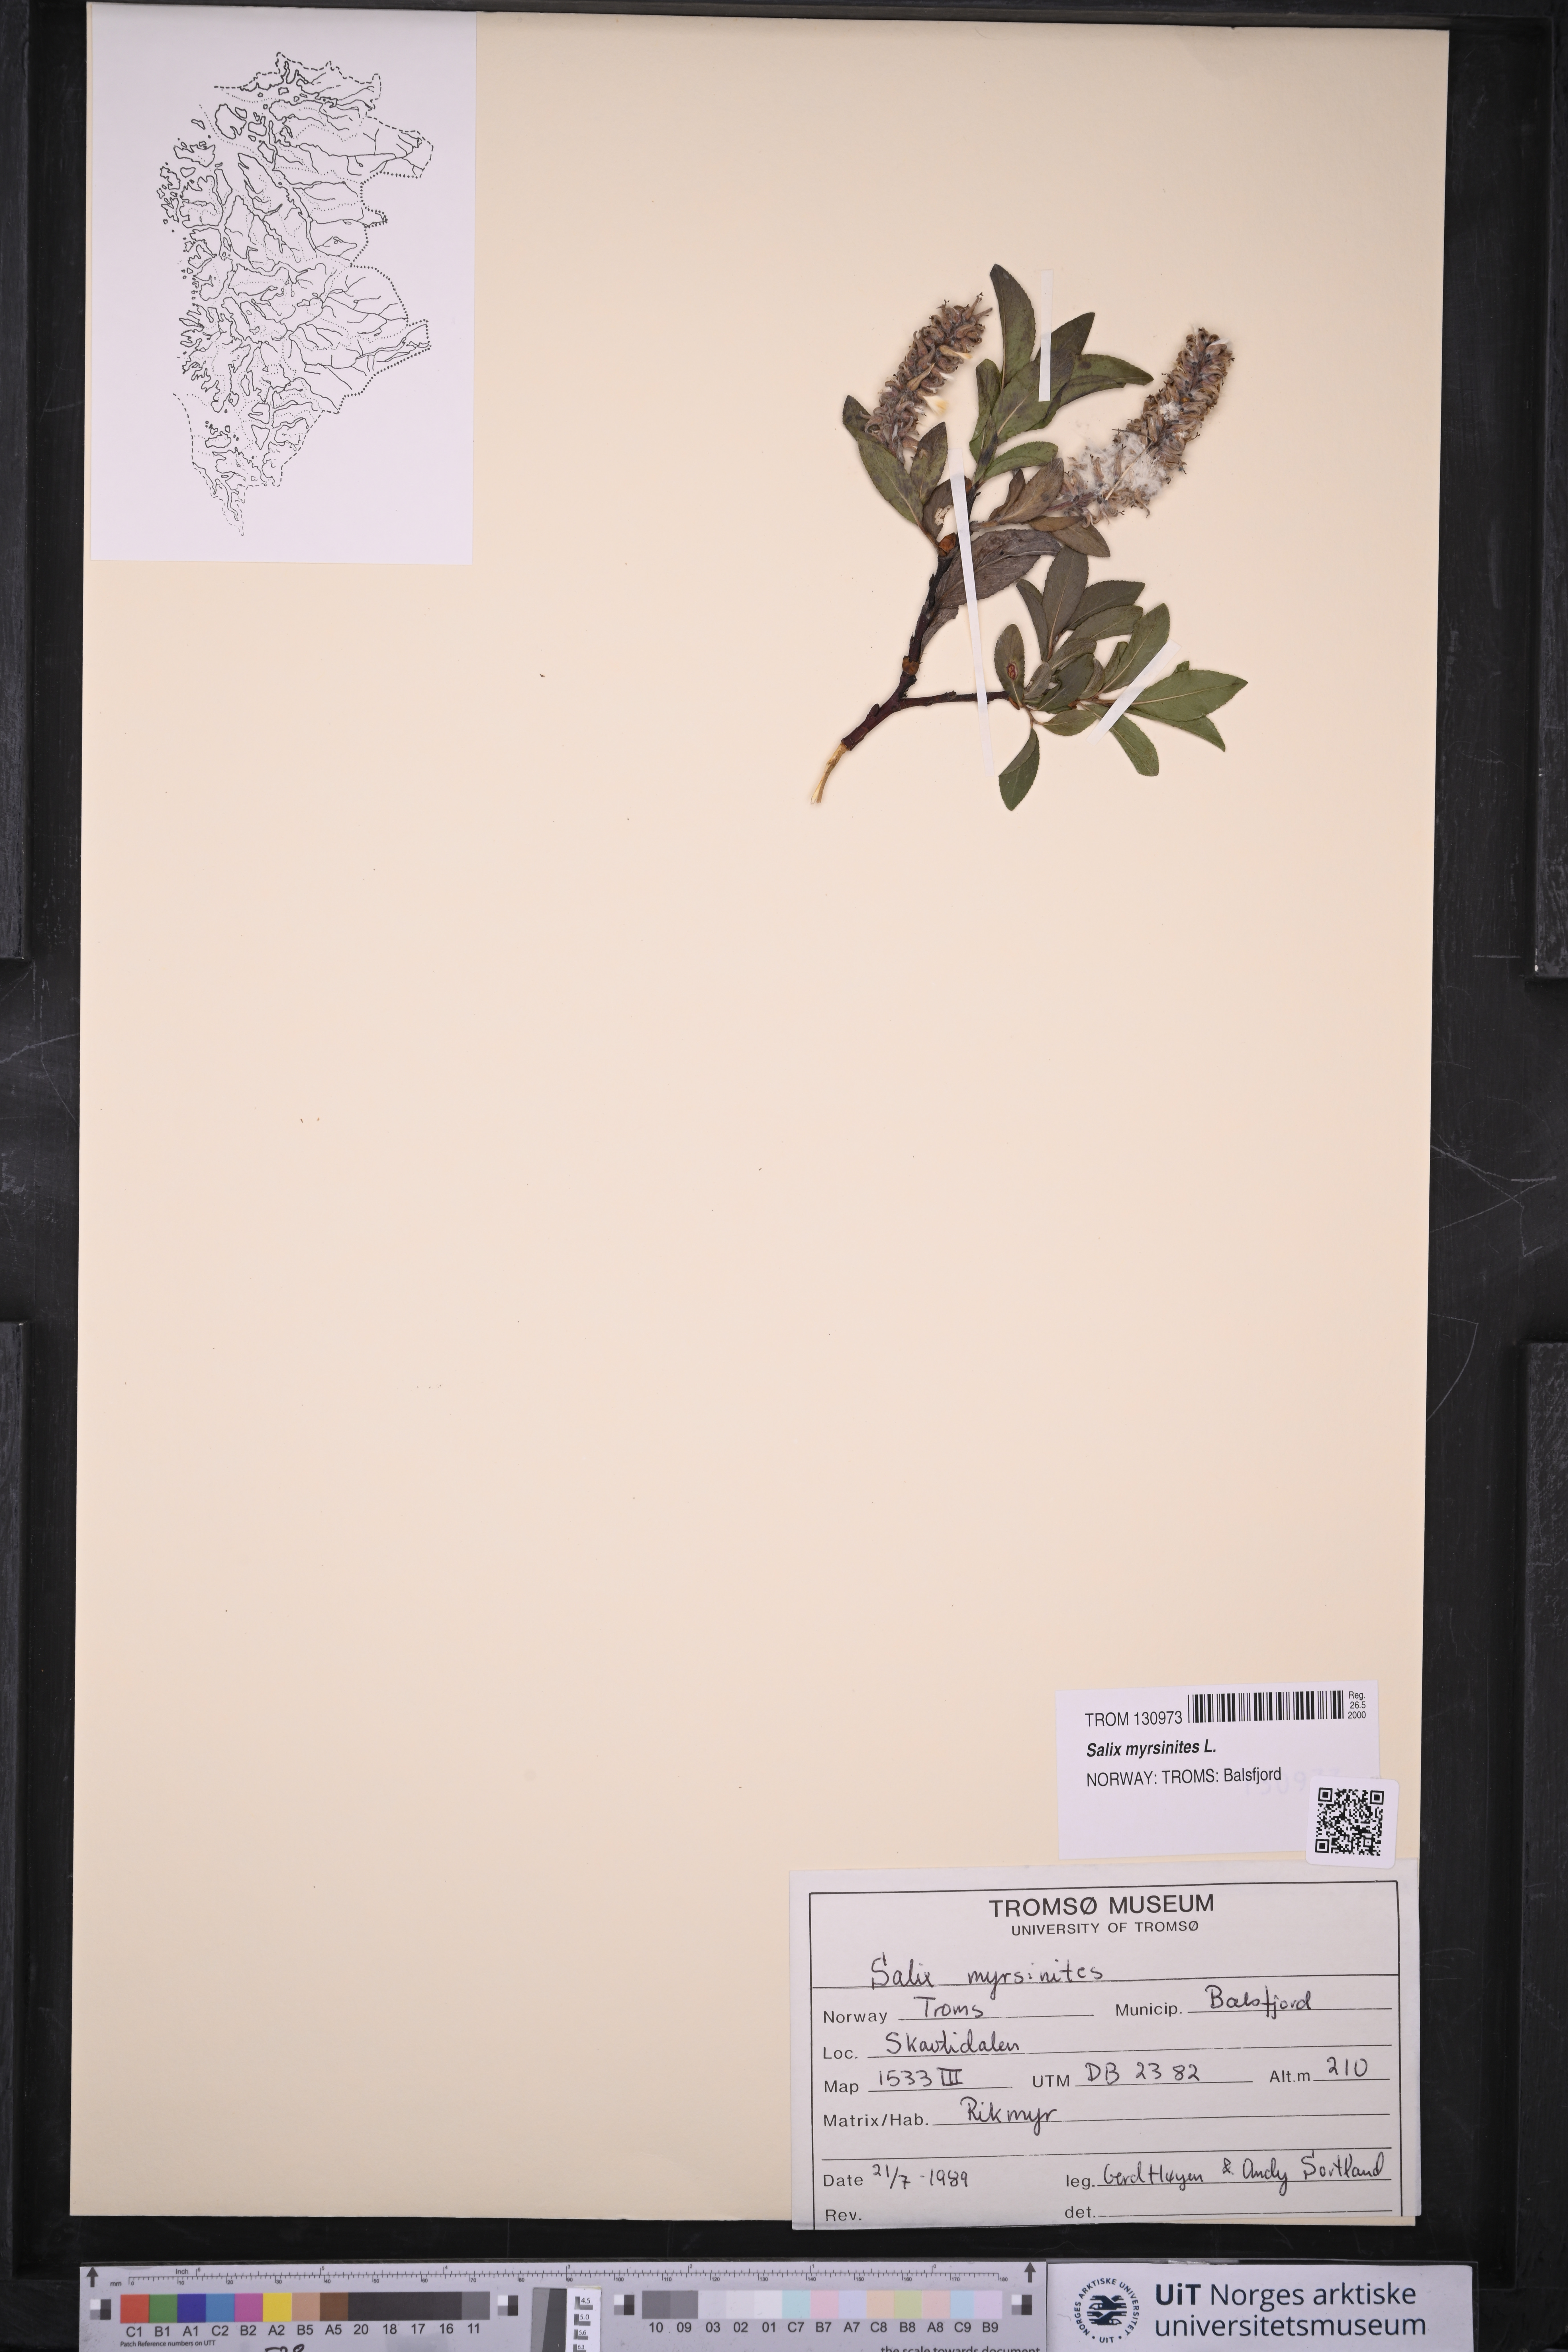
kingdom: Plantae
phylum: Tracheophyta
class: Magnoliopsida
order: Malpighiales
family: Salicaceae
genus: Salix
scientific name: Salix myrsinites
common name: Myrtle willow
